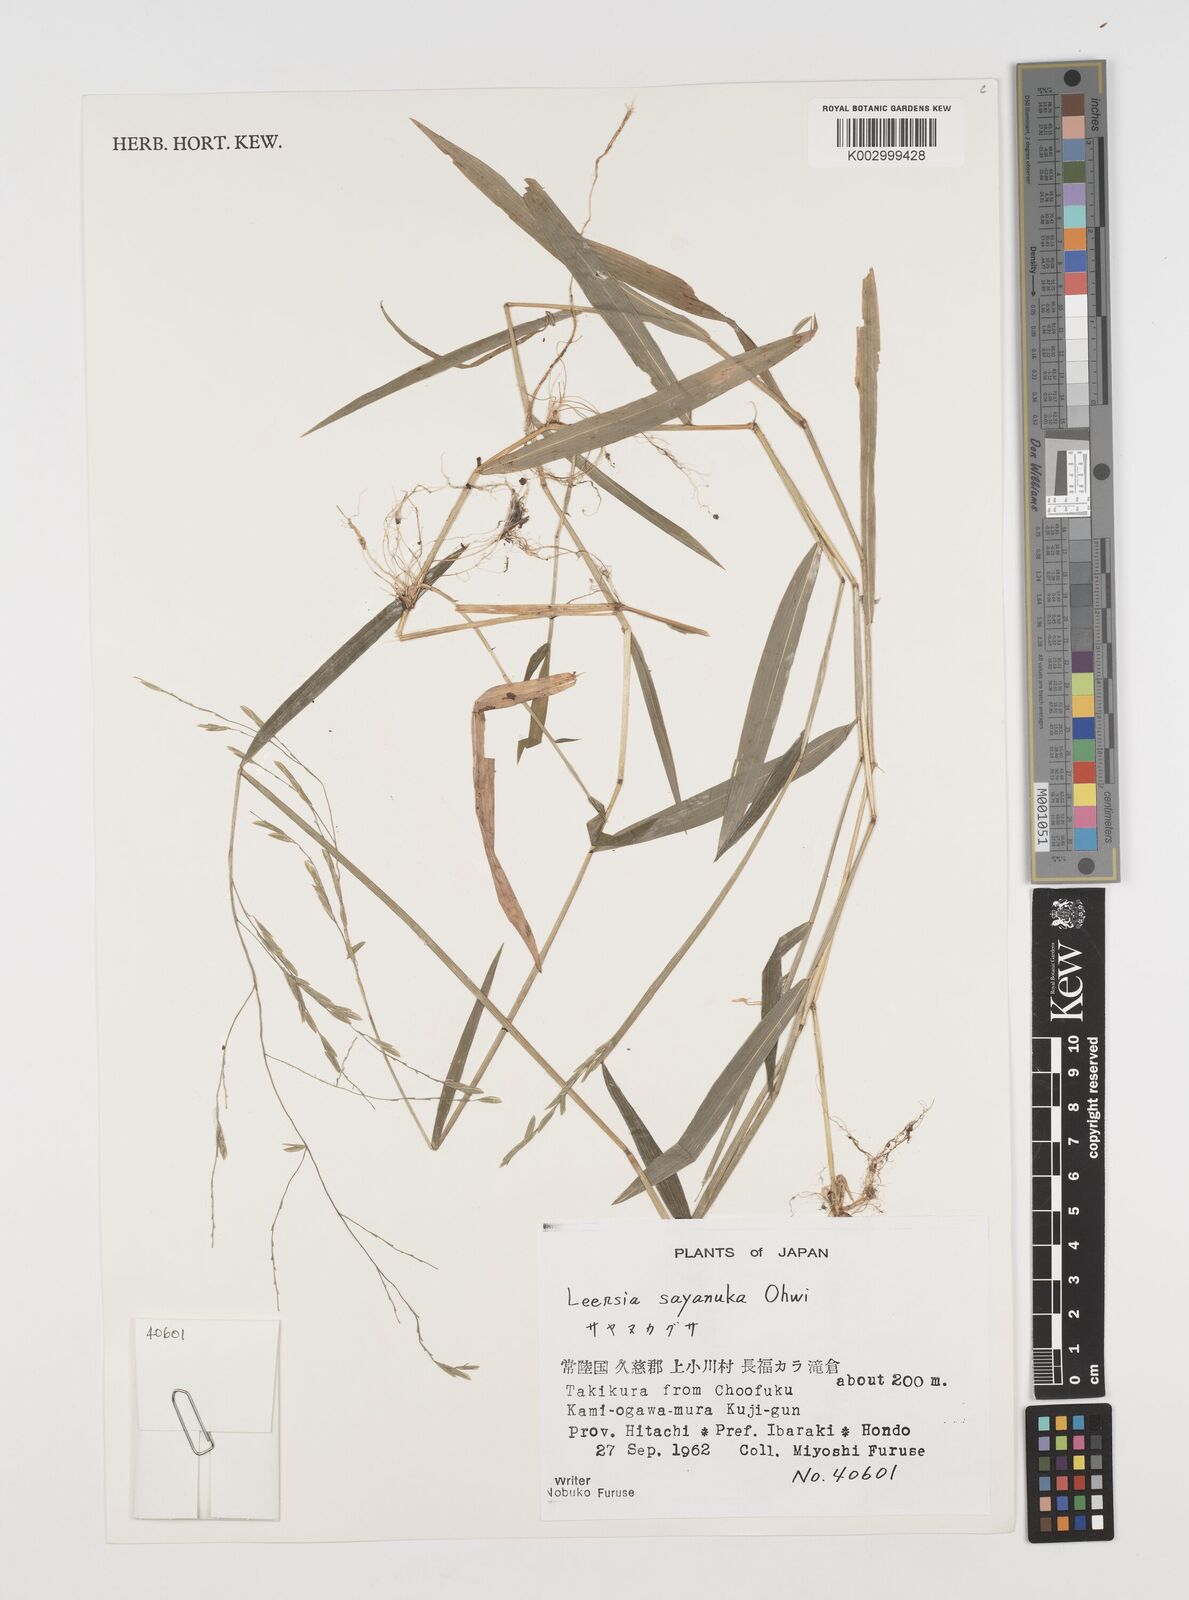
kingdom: Plantae
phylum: Tracheophyta
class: Liliopsida
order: Poales
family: Poaceae
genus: Leersia
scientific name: Leersia sayanuka
